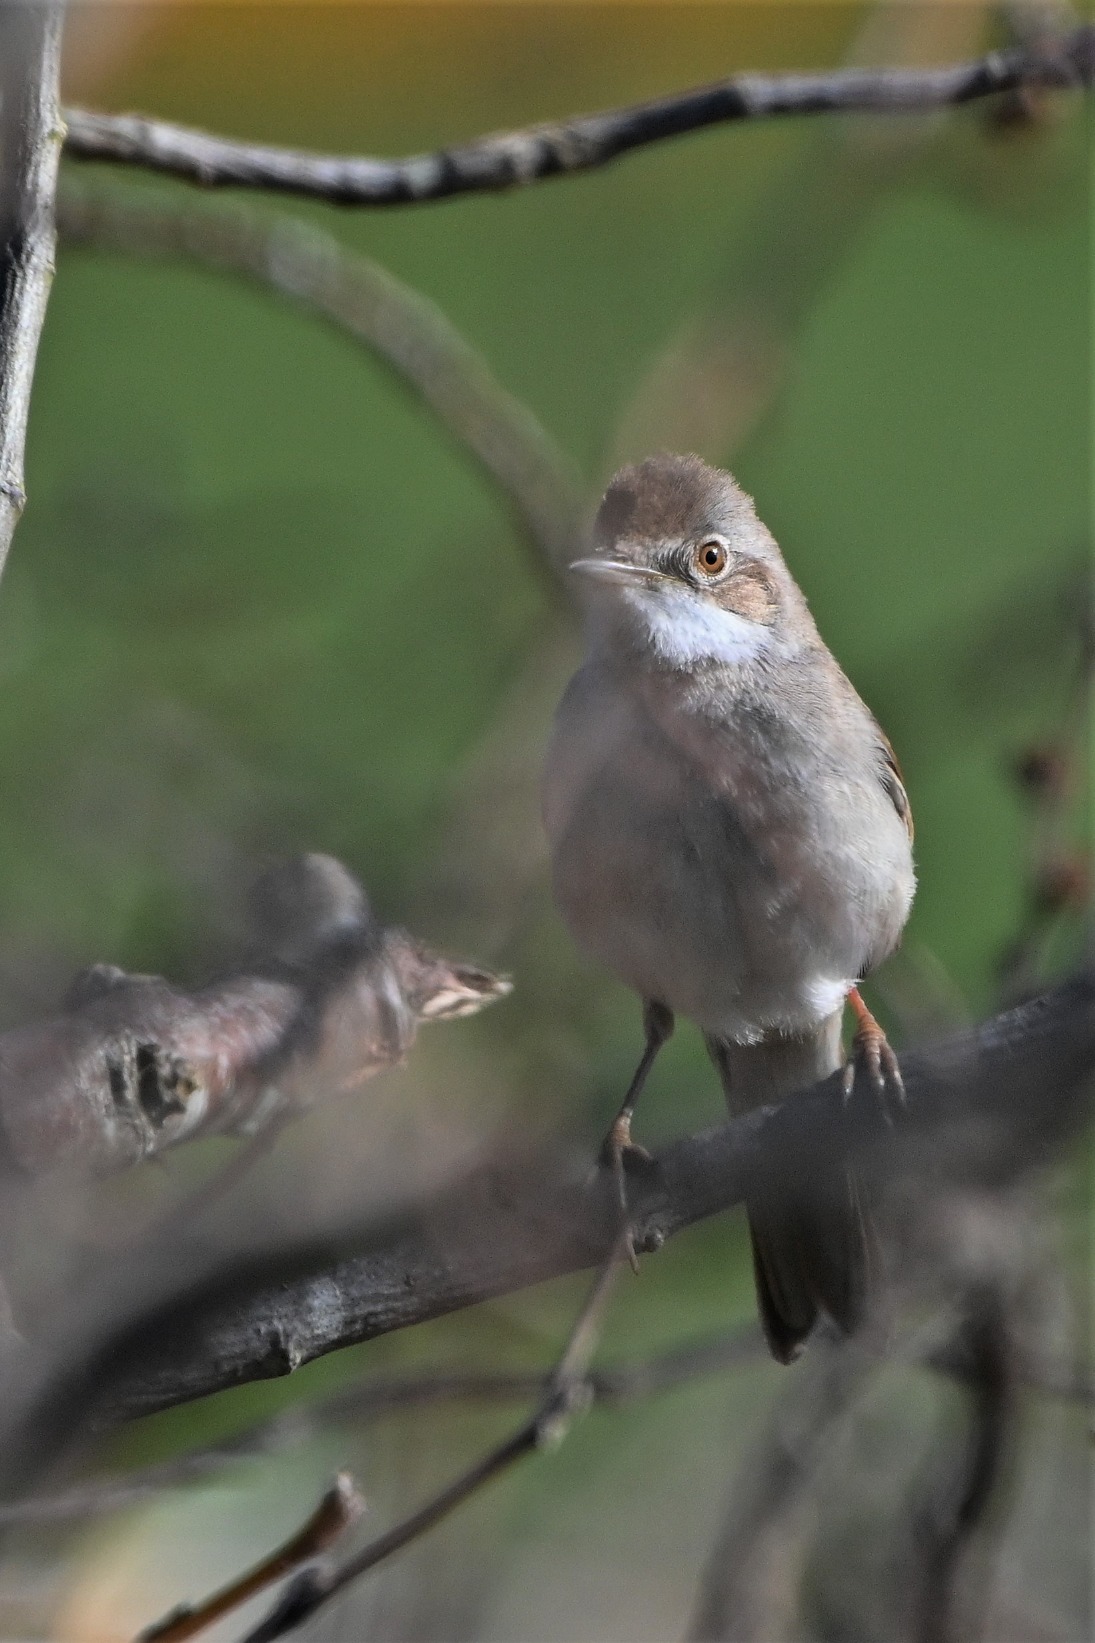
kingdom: Animalia
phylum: Chordata
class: Aves
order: Passeriformes
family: Sylviidae
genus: Sylvia
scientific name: Sylvia communis
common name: Tornsanger
